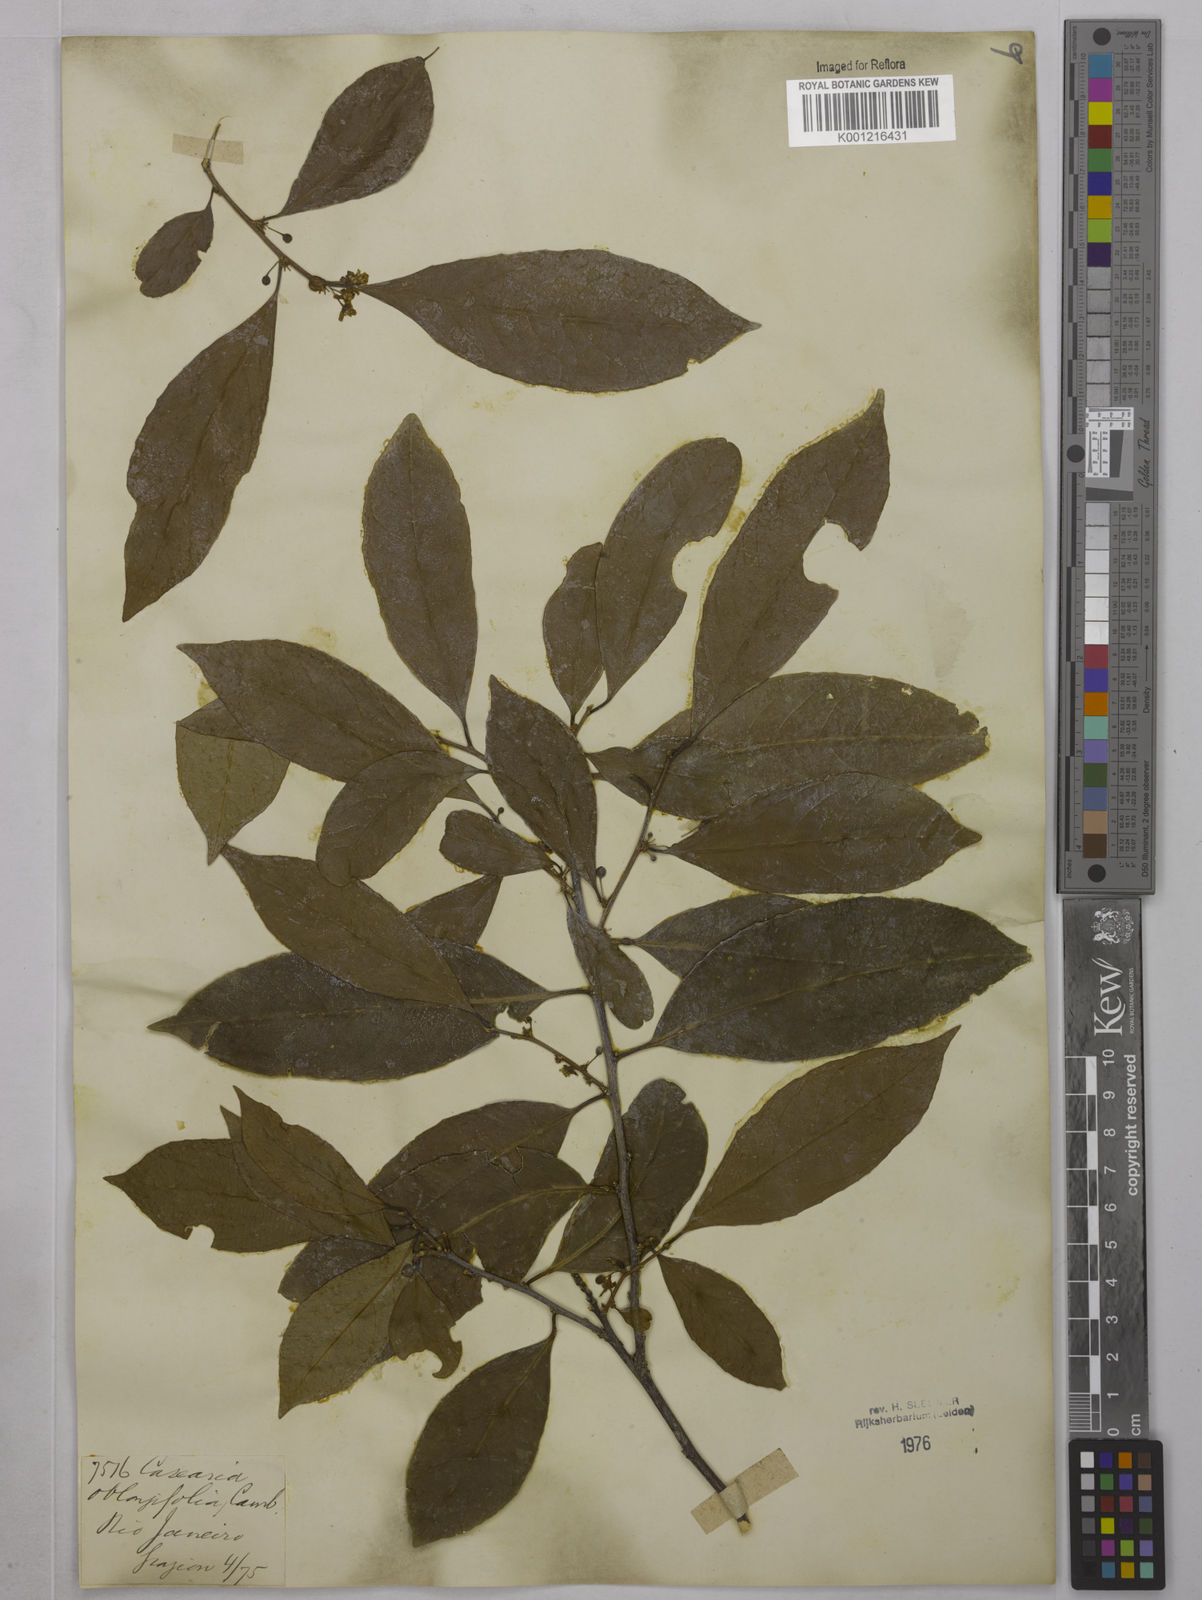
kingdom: Plantae
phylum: Tracheophyta
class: Magnoliopsida
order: Malpighiales
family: Salicaceae
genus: Casearia
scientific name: Casearia oblongifolia
